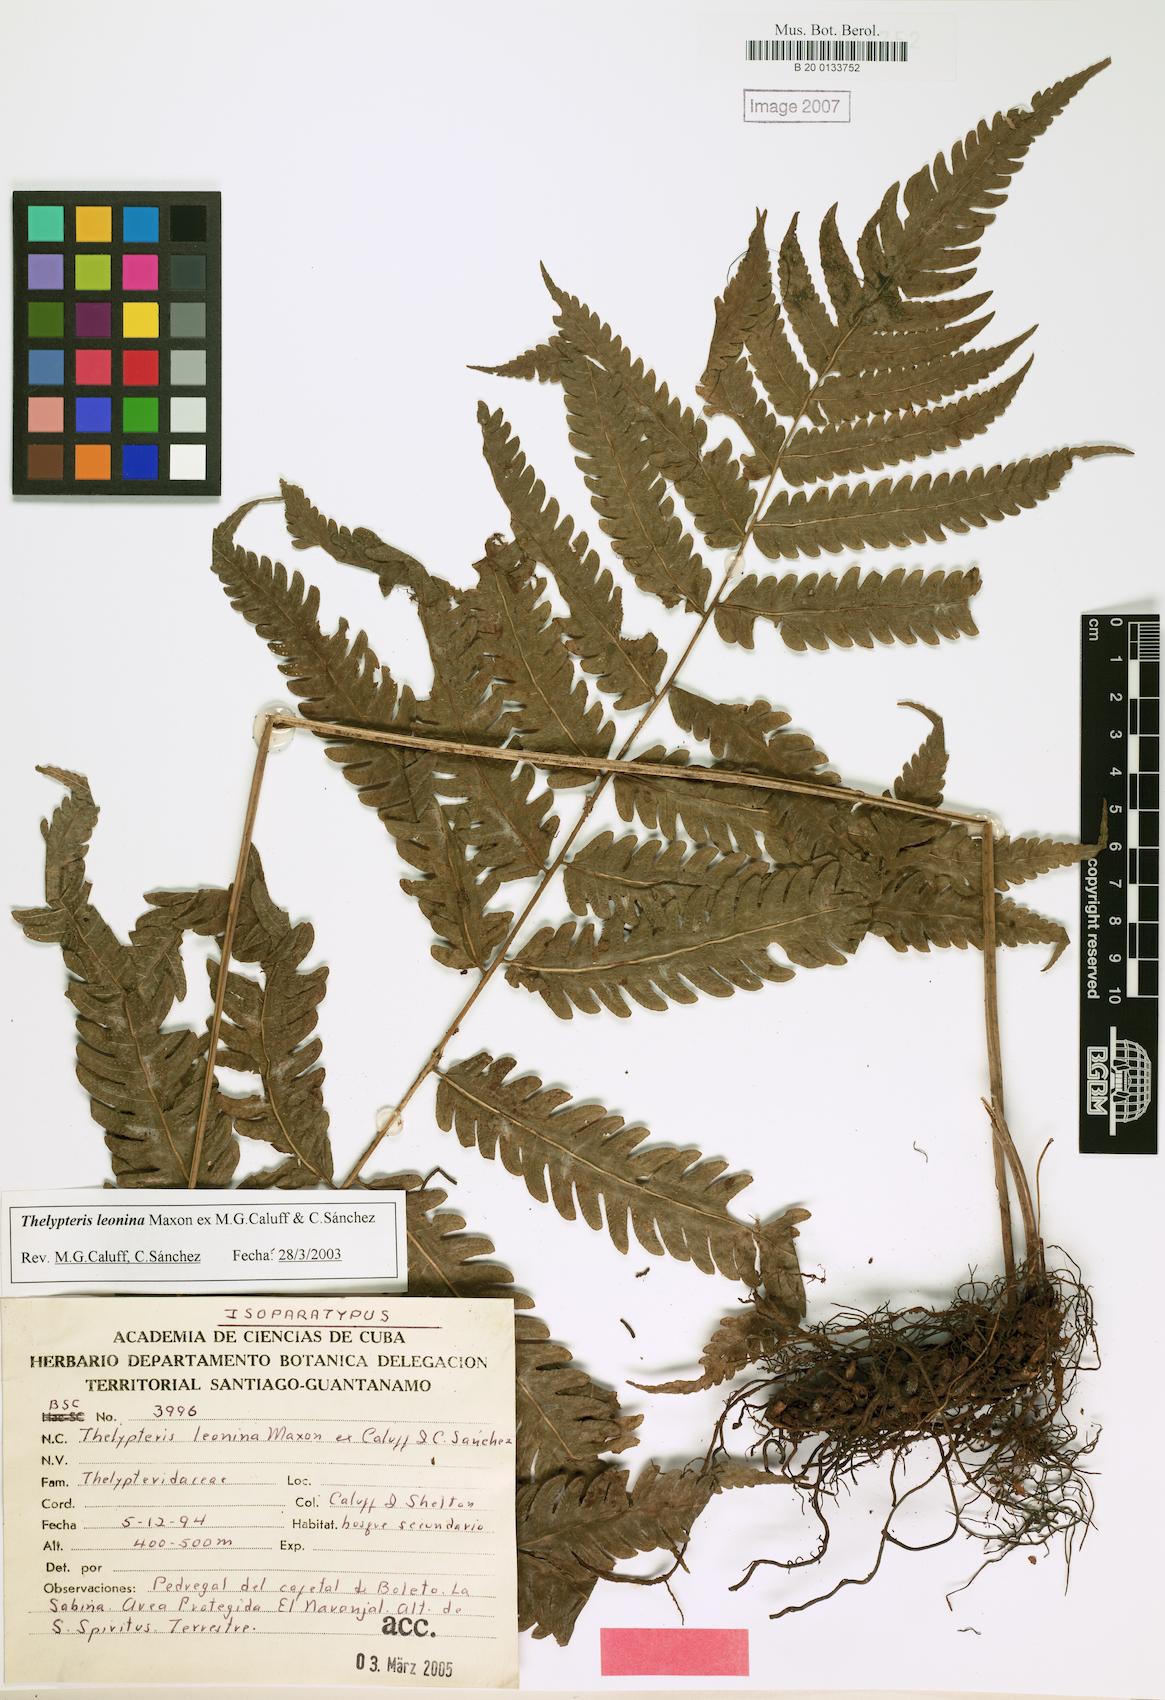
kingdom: Plantae
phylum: Tracheophyta
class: Polypodiopsida
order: Polypodiales
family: Thelypteridaceae
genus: Goniopteris
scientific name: Goniopteris leonina
